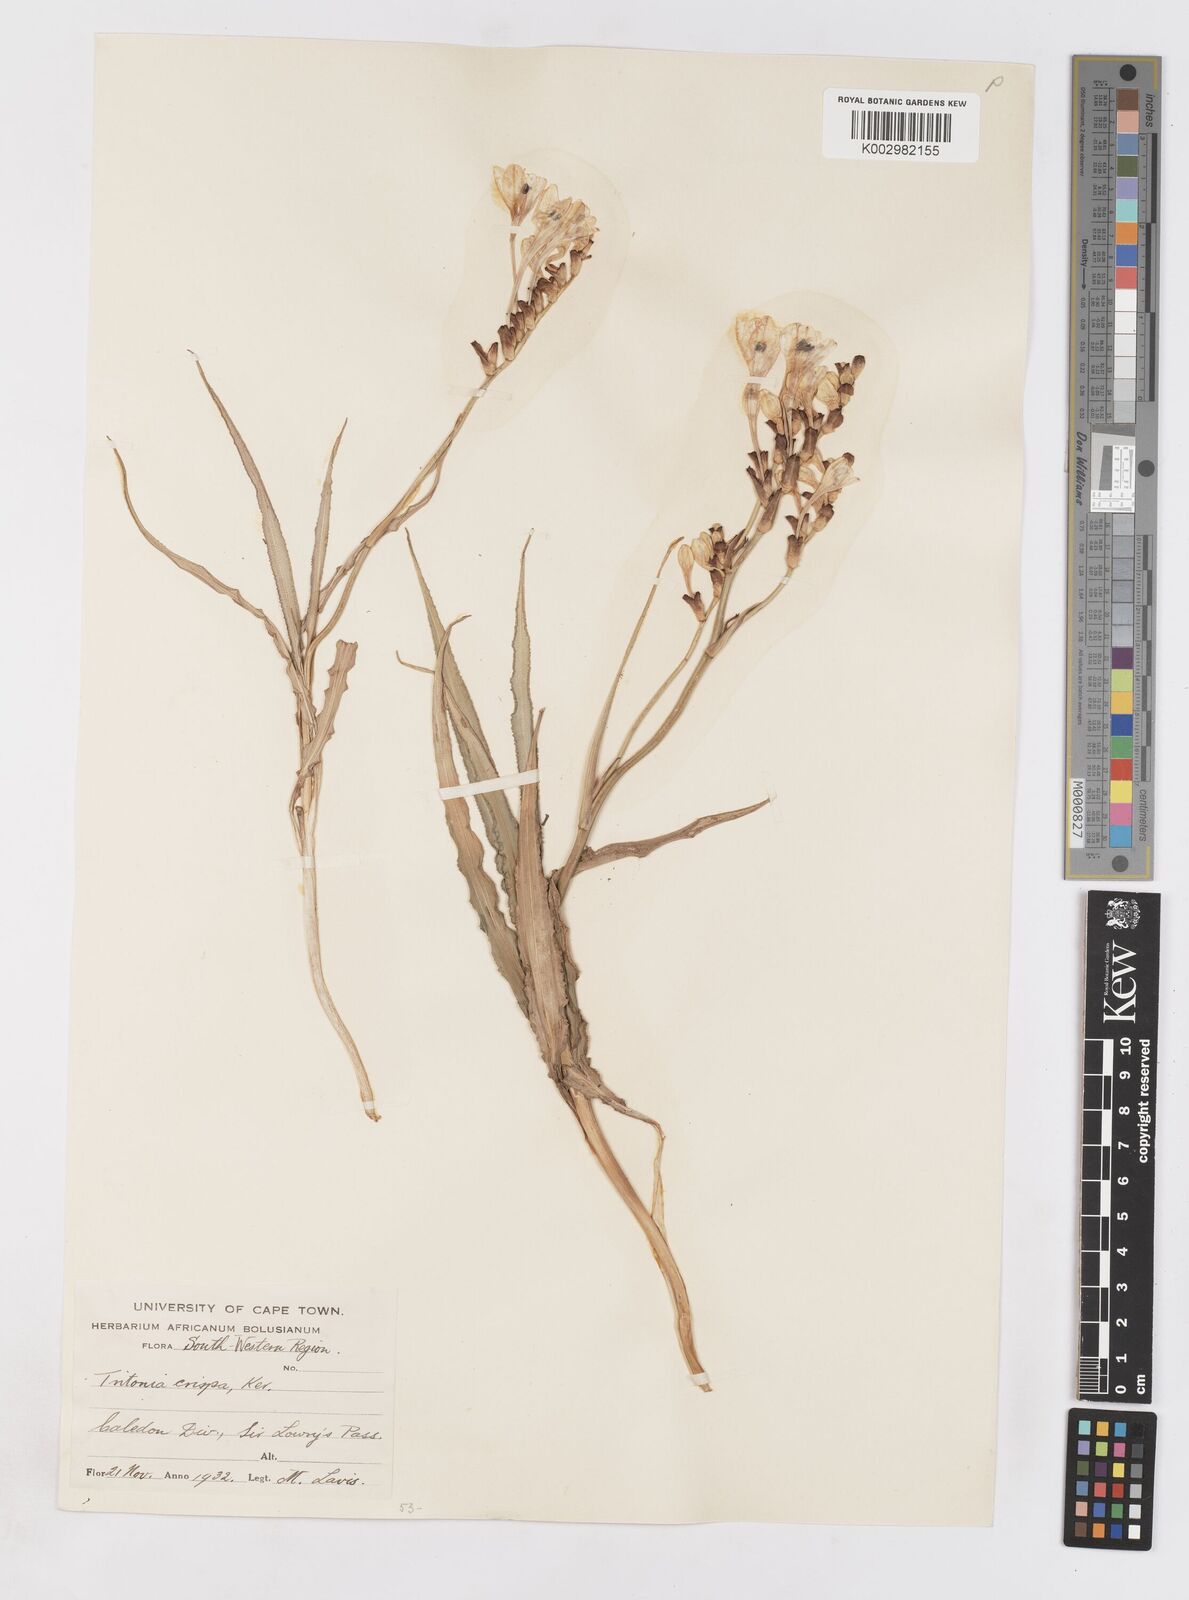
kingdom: Plantae
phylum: Tracheophyta
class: Liliopsida
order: Asparagales
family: Iridaceae
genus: Tritonia
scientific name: Tritonia undulata
